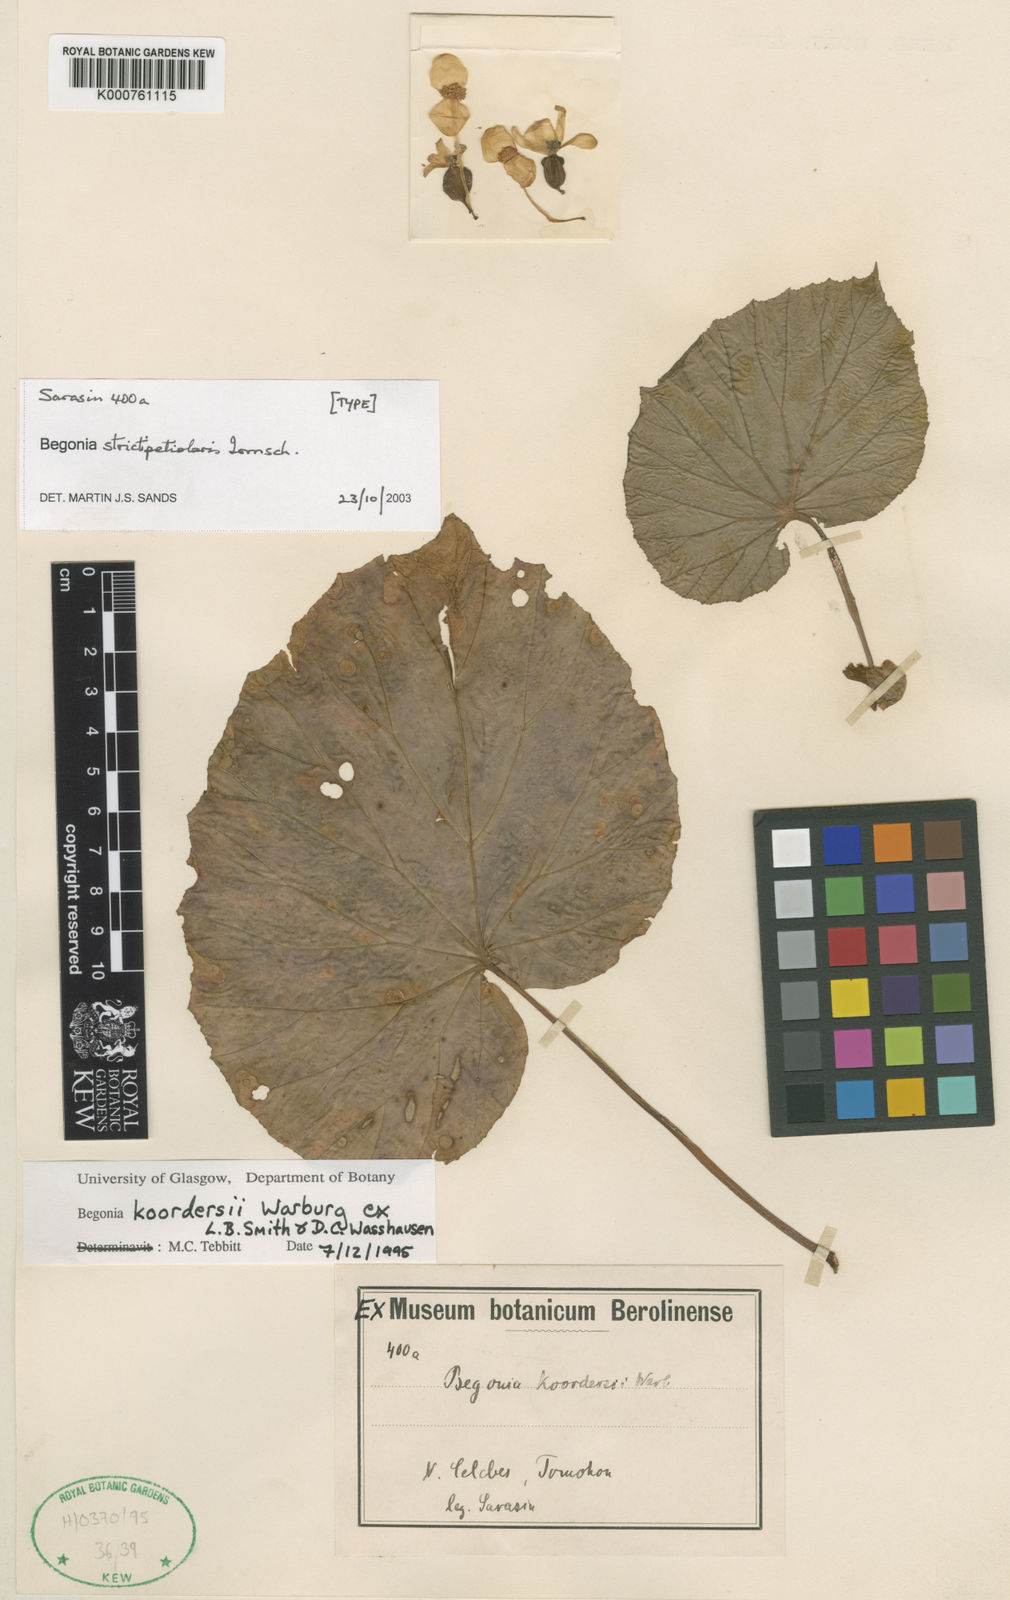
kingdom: Plantae
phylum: Tracheophyta
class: Magnoliopsida
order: Cucurbitales
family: Begoniaceae
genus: Begonia
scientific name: Begonia strictipetiolaris
